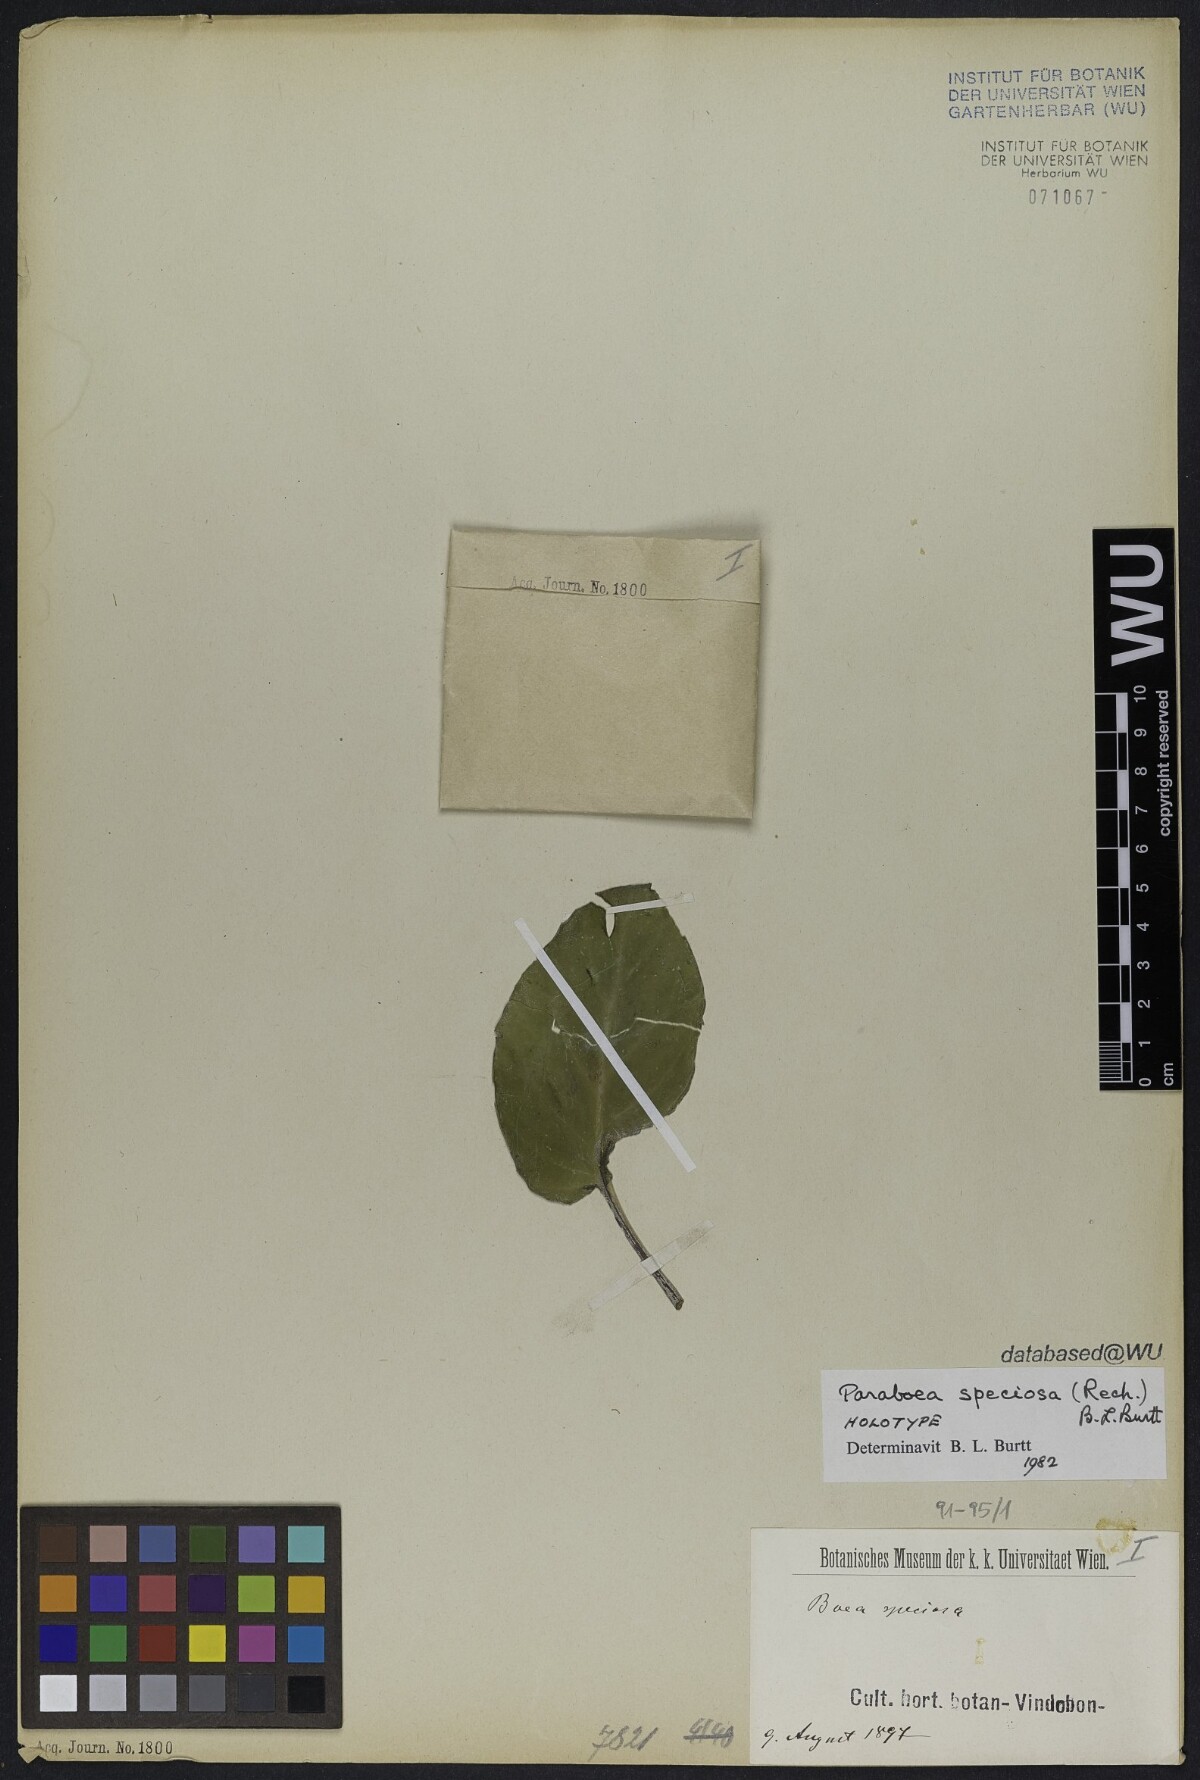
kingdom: Plantae
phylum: Tracheophyta
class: Magnoliopsida
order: Lamiales
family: Gesneriaceae
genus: Paraboea
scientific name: Paraboea speciosa
